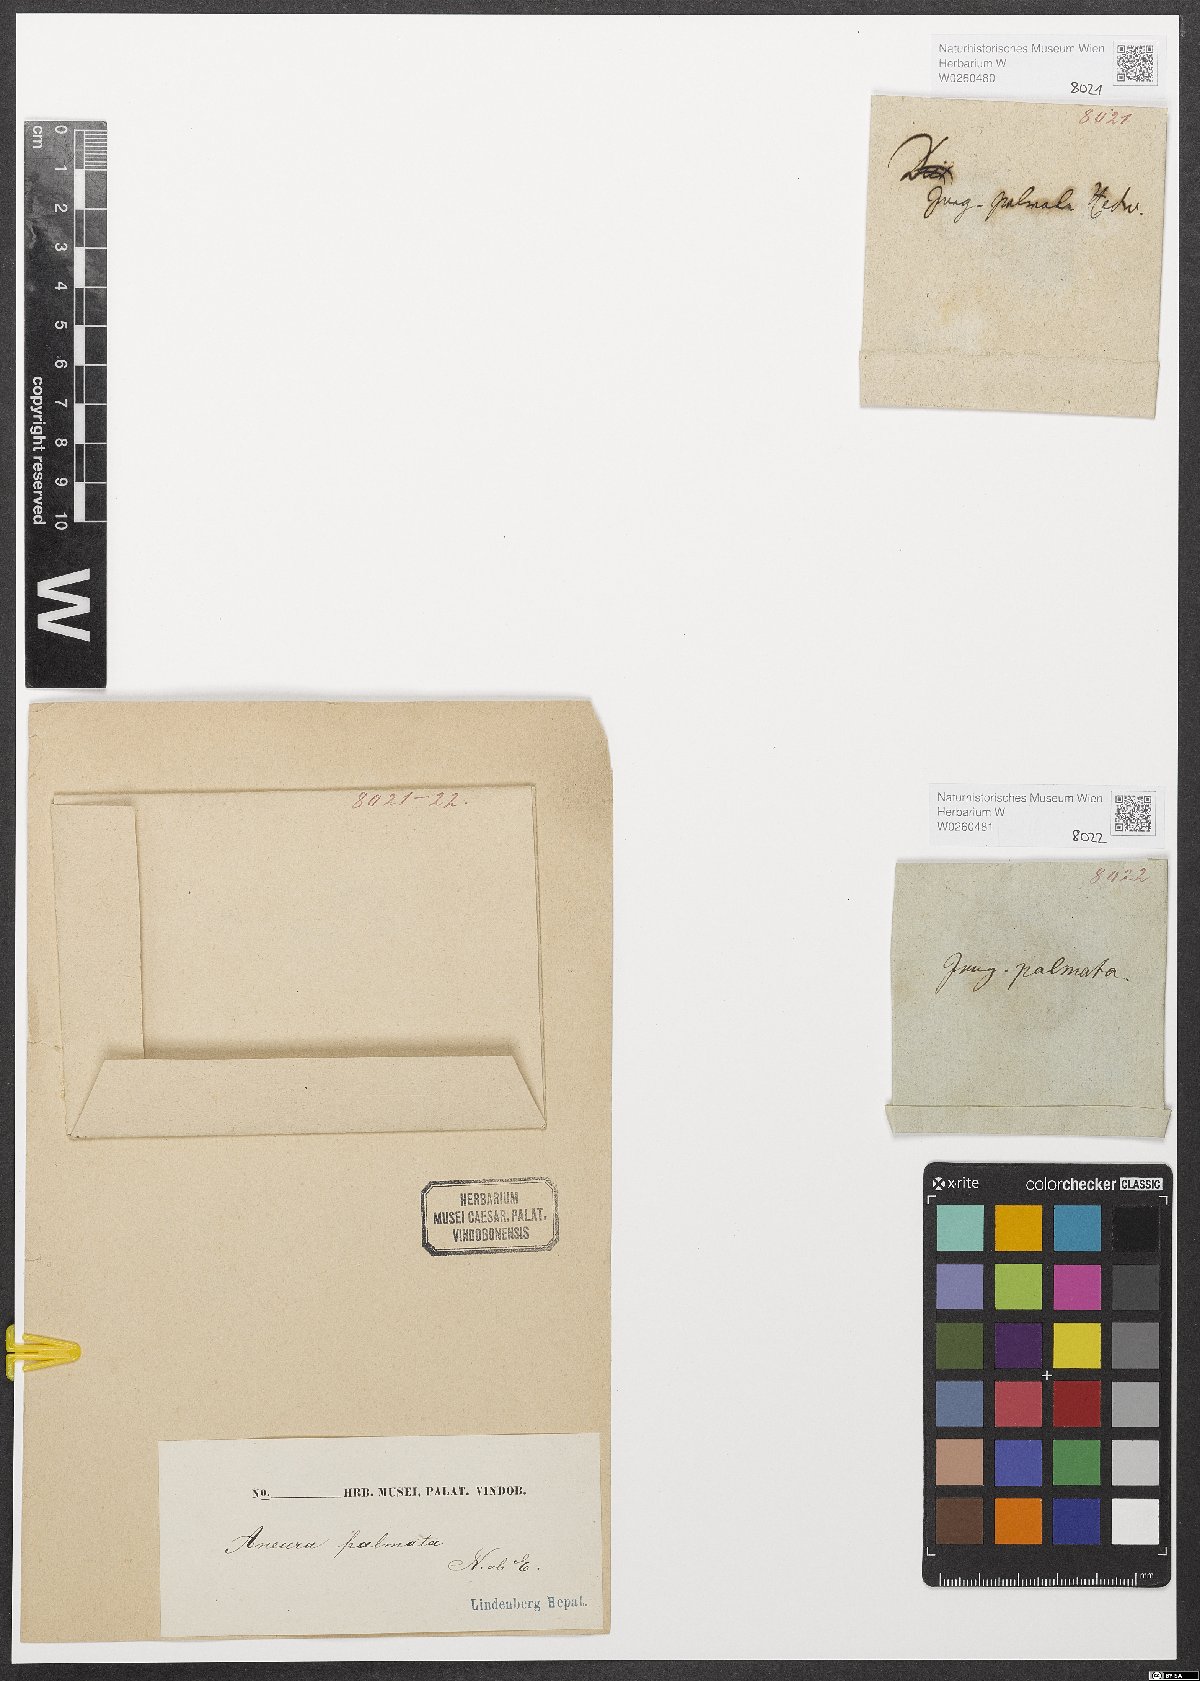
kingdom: Plantae
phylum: Marchantiophyta
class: Jungermanniopsida
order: Metzgeriales
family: Aneuraceae
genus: Riccardia
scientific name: Riccardia palmata
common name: Palmate germanderwort
